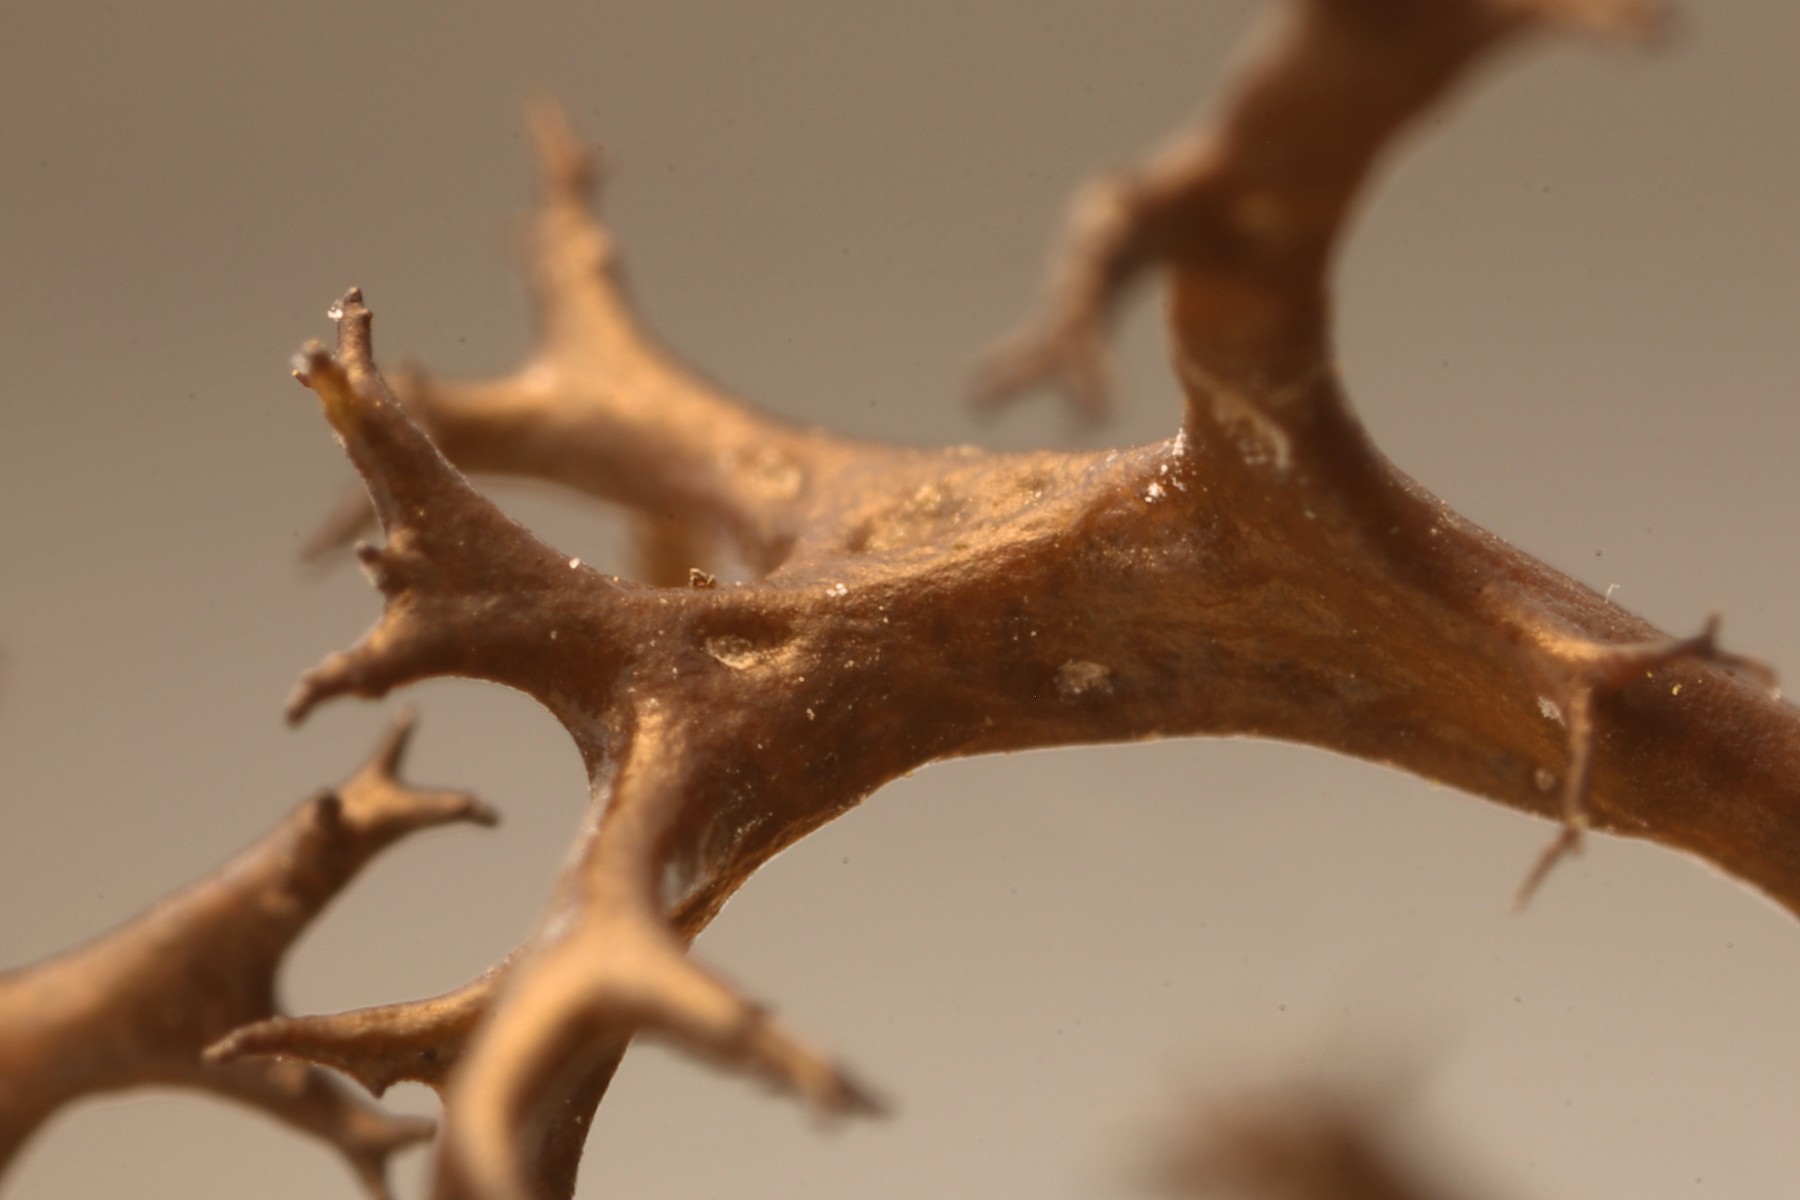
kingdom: Fungi
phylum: Ascomycota
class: Lecanoromycetes
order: Lecanorales
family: Parmeliaceae
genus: Cetraria
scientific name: Cetraria aculeata
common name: grubet tjørnelav
